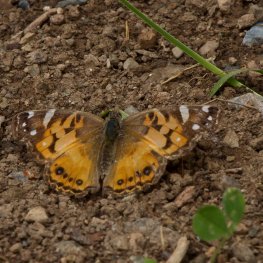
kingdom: Animalia
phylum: Arthropoda
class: Insecta
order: Lepidoptera
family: Nymphalidae
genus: Vanessa
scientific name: Vanessa virginiensis
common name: American Lady
